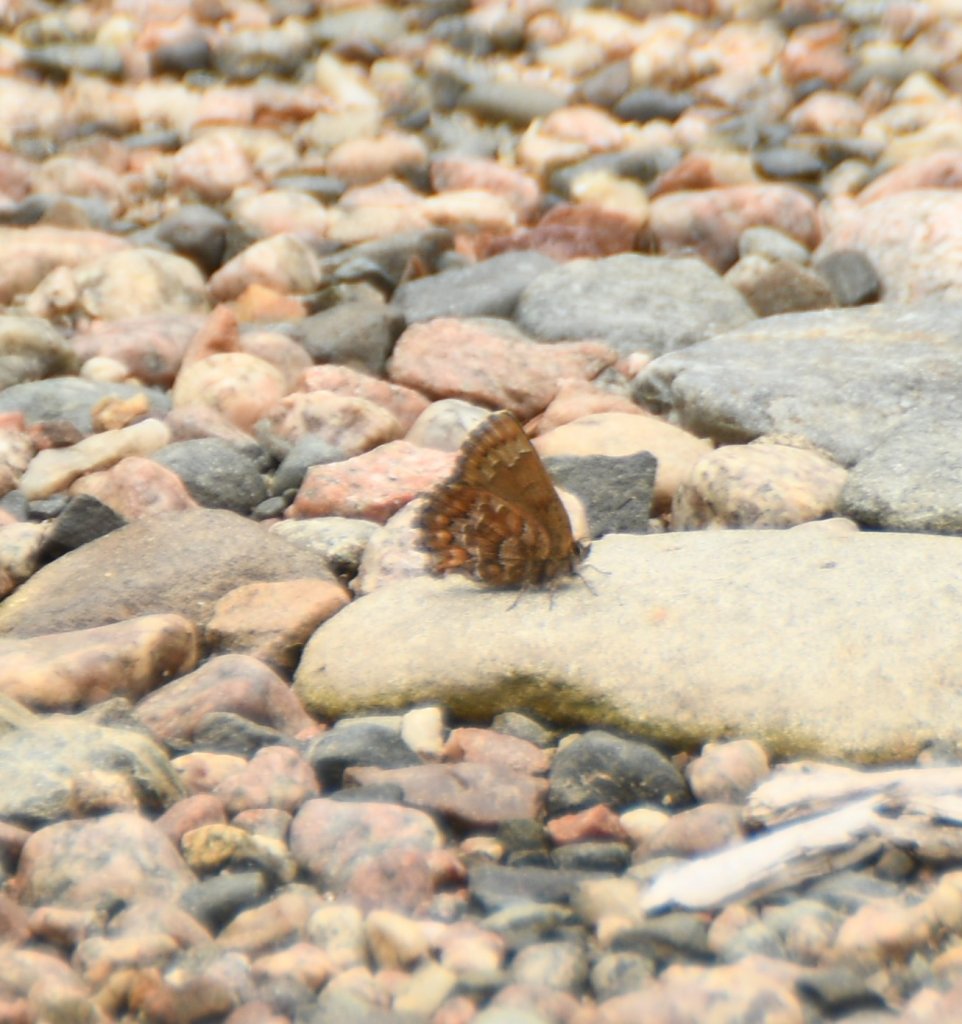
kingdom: Animalia
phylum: Arthropoda
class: Insecta
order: Lepidoptera
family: Lycaenidae
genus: Incisalia
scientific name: Incisalia niphon
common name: Eastern Pine Elfin
